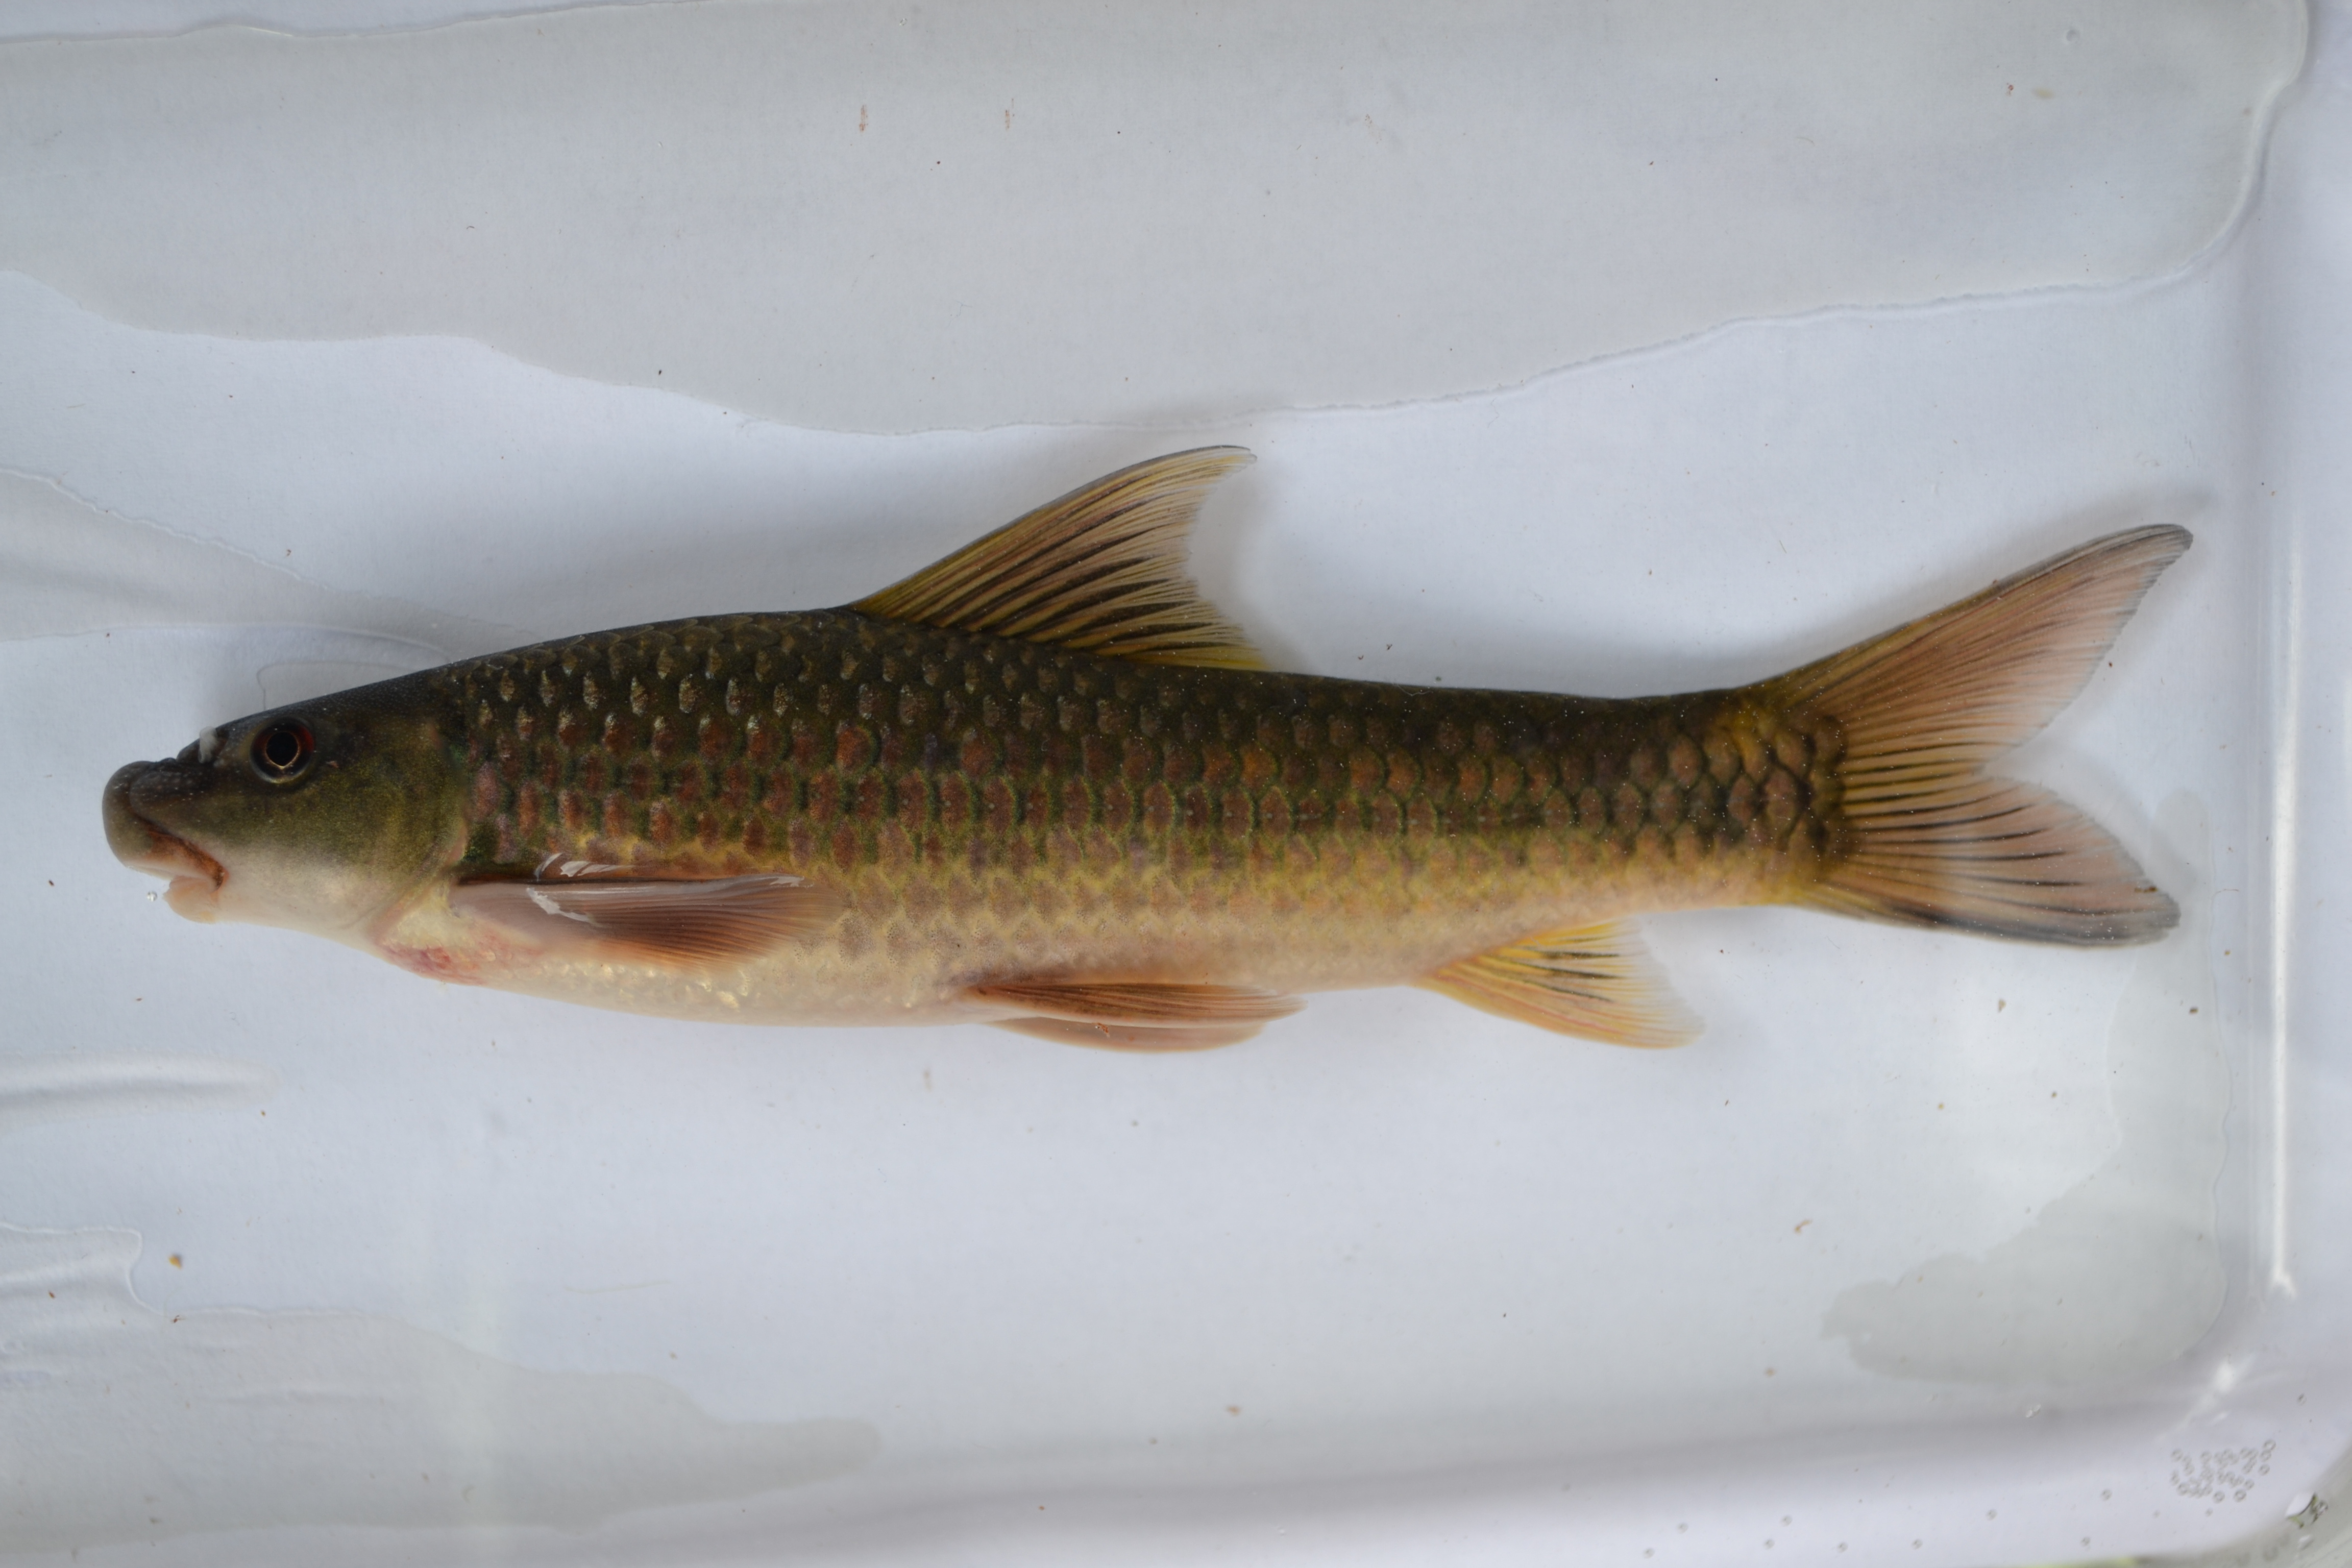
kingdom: Animalia
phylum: Chordata
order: Cypriniformes
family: Cyprinidae
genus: Labeo
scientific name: Labeo cylindricus
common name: Redeye labeo
